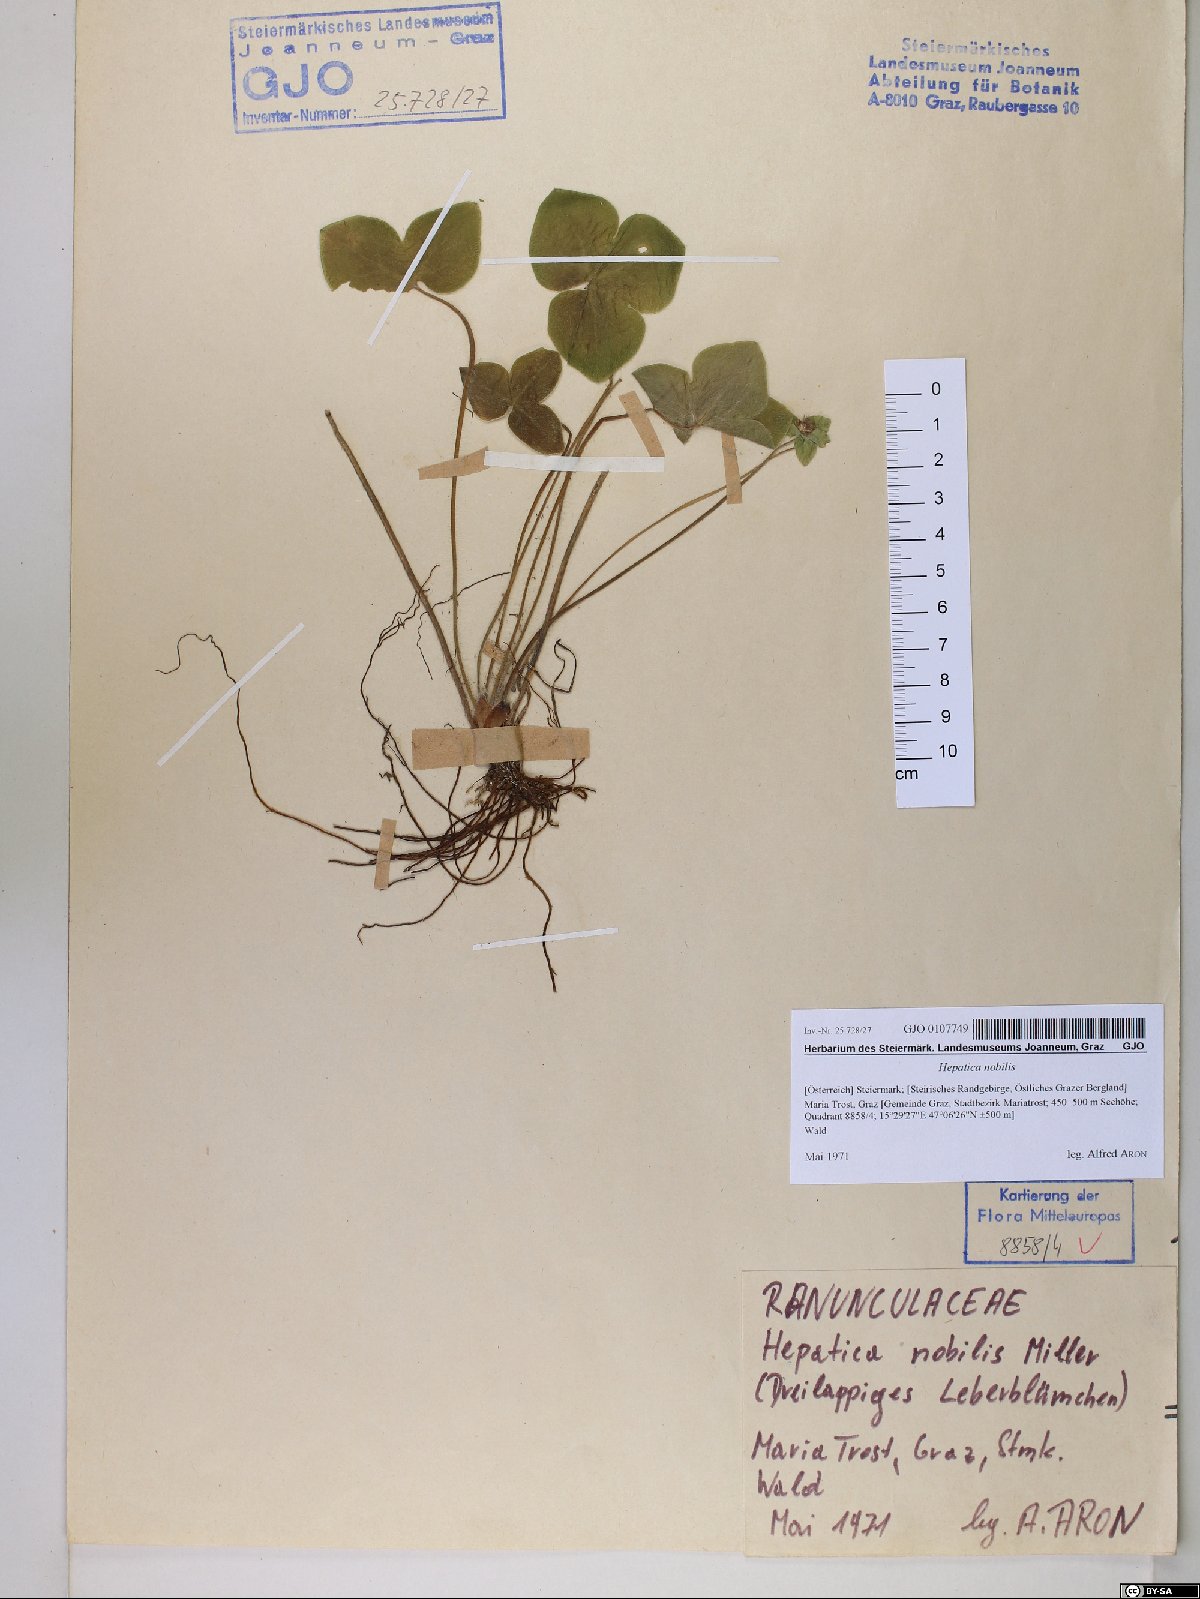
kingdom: Plantae
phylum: Tracheophyta
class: Magnoliopsida
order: Ranunculales
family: Ranunculaceae
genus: Hepatica
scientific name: Hepatica nobilis
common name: Liverleaf
